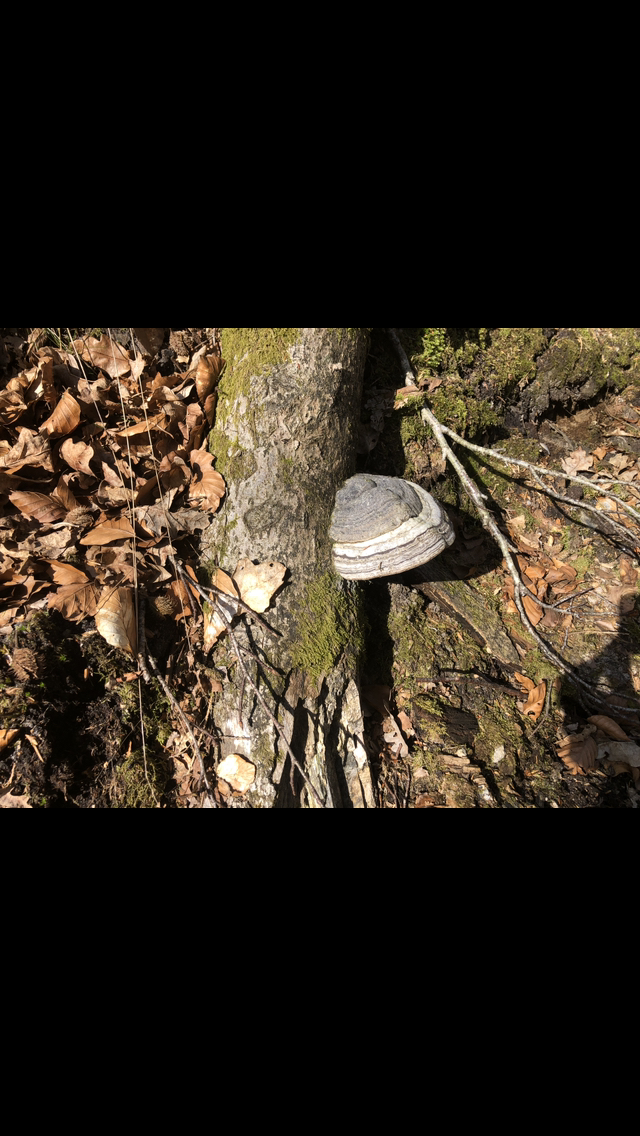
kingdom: Fungi
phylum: Basidiomycota
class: Agaricomycetes
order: Polyporales
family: Polyporaceae
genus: Fomes
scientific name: Fomes fomentarius
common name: tøndersvamp
